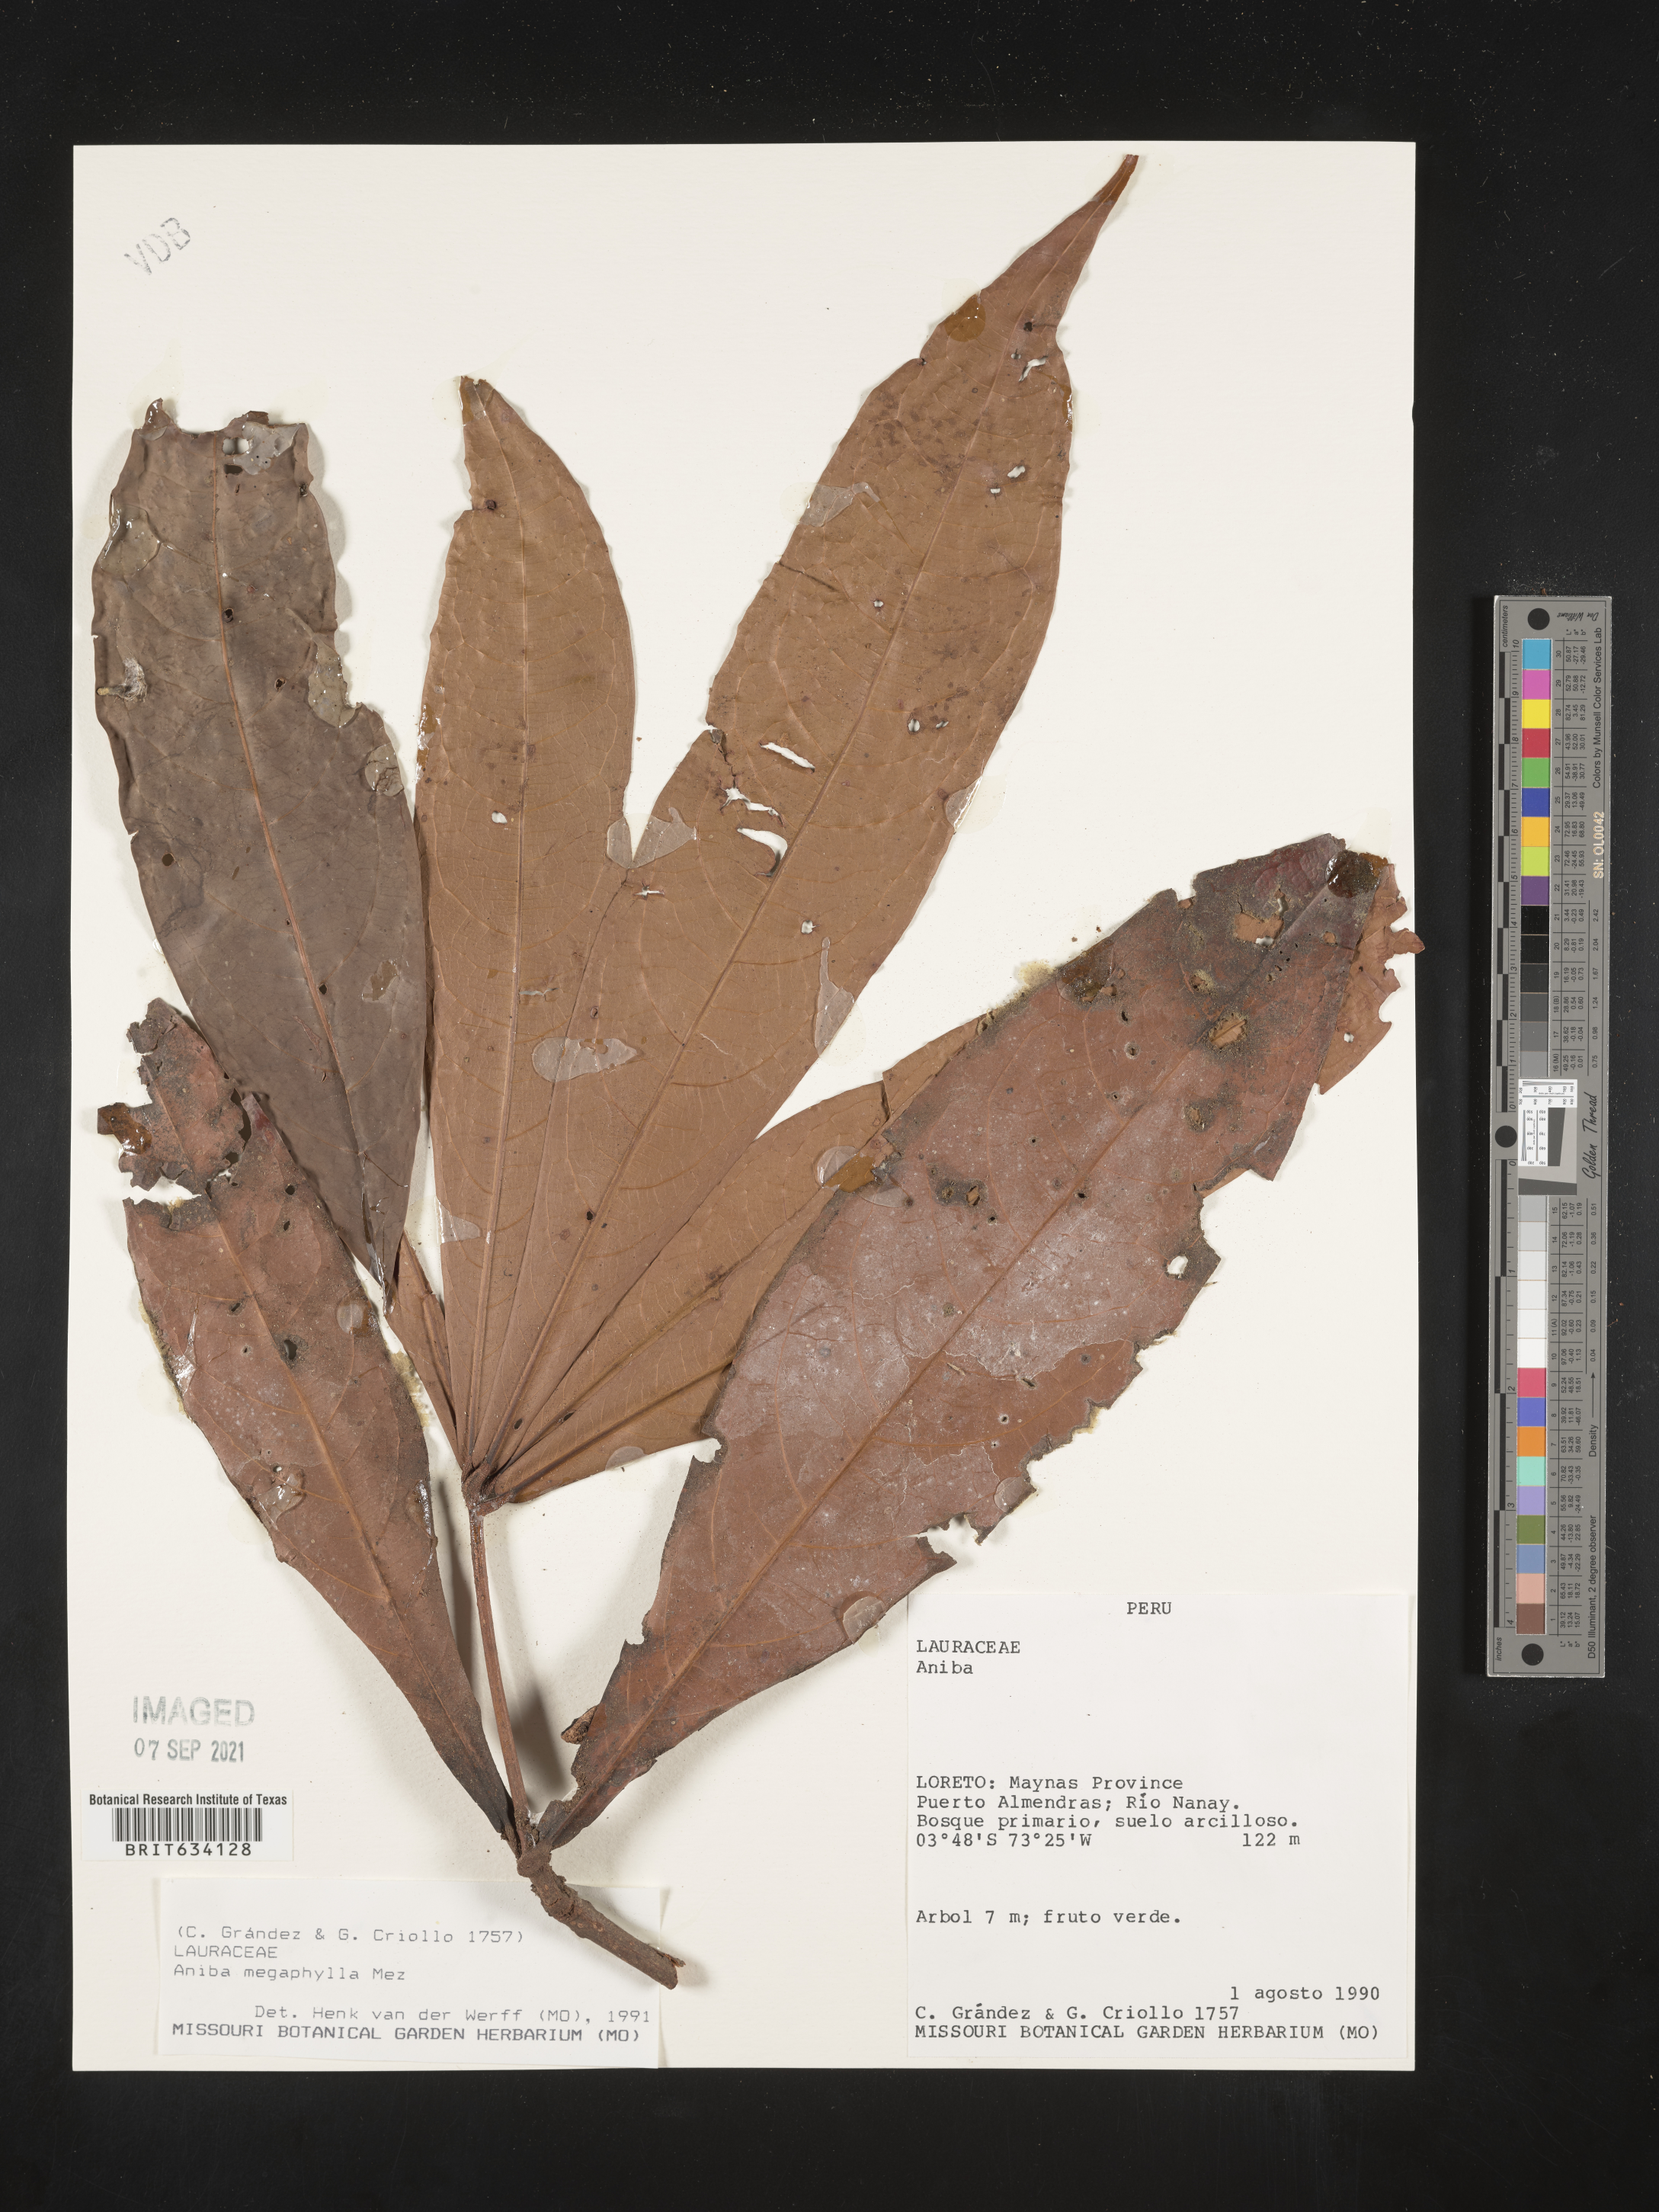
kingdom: Plantae
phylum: Tracheophyta
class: Magnoliopsida
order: Laurales
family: Lauraceae
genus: Aniba
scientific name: Aniba
